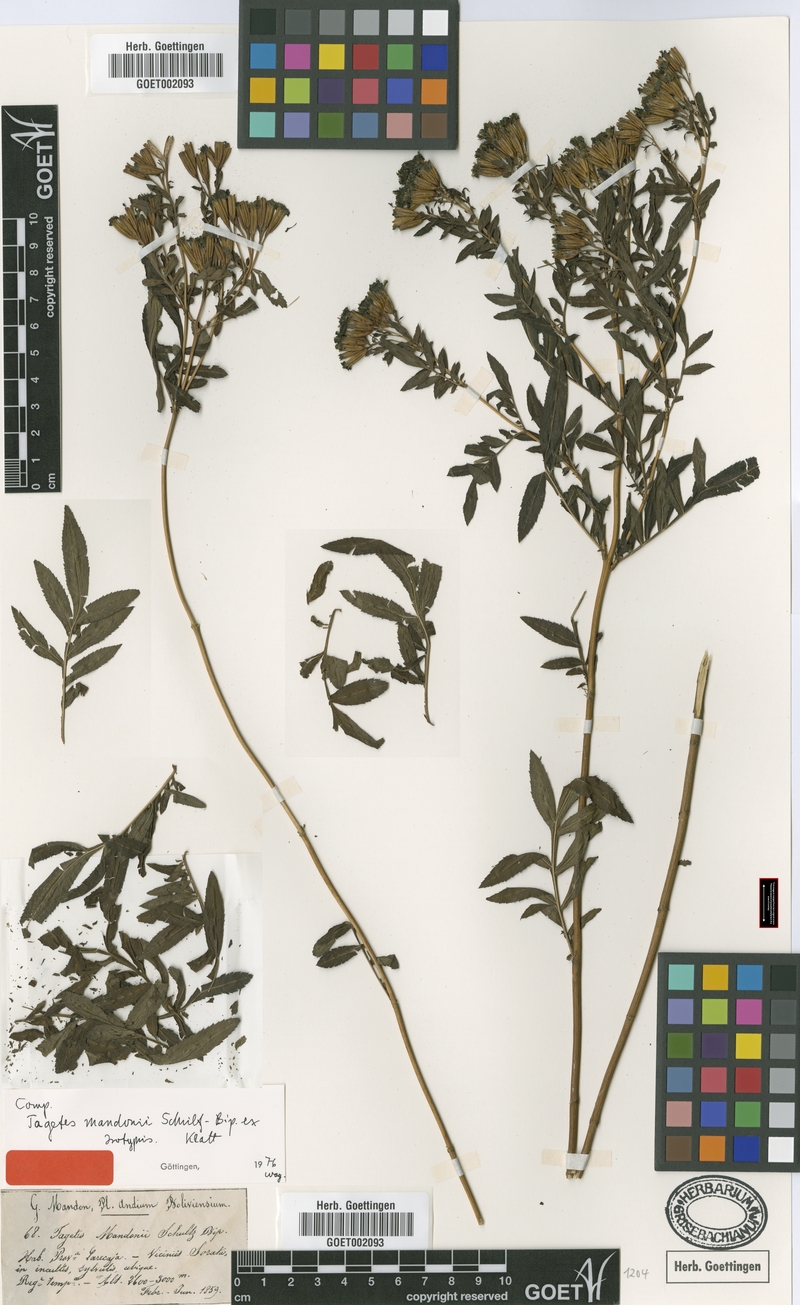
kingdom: Plantae
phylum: Tracheophyta
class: Magnoliopsida
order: Asterales
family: Asteraceae
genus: Tagetes
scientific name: Tagetes mandonii
